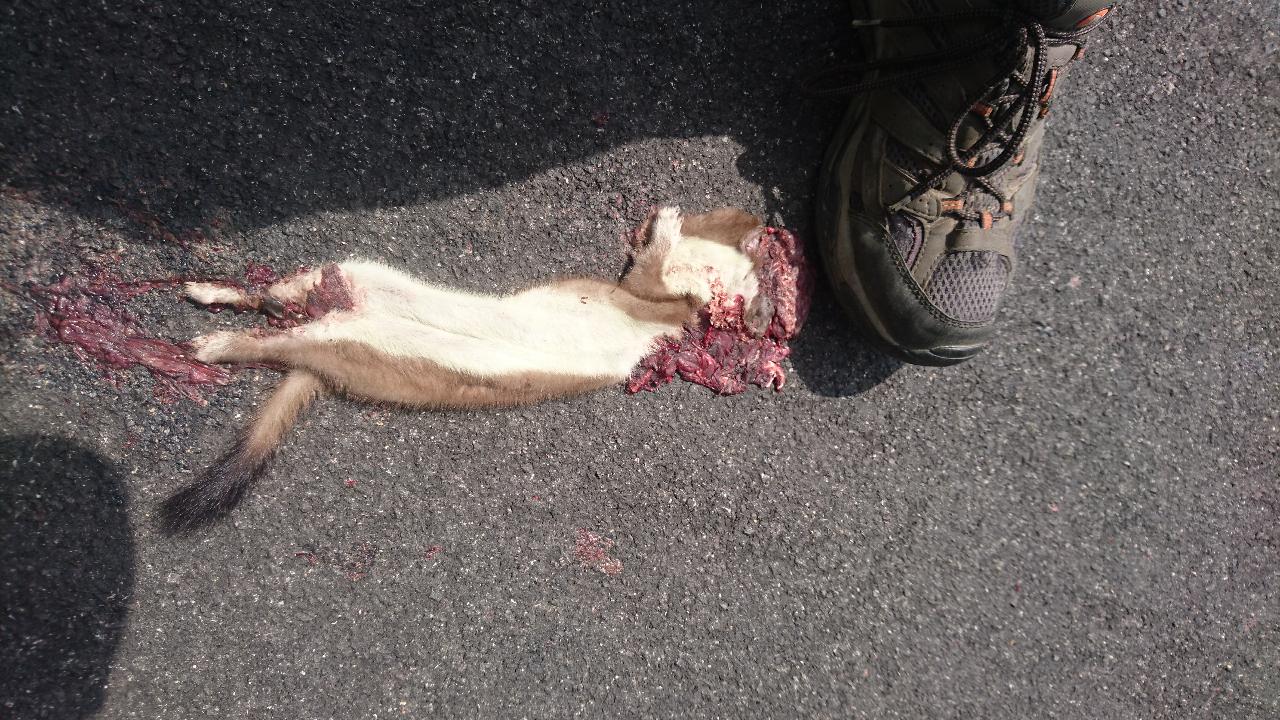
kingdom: Animalia
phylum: Chordata
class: Mammalia
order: Carnivora
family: Mustelidae
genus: Mustela
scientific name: Mustela erminea
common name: Stoat
